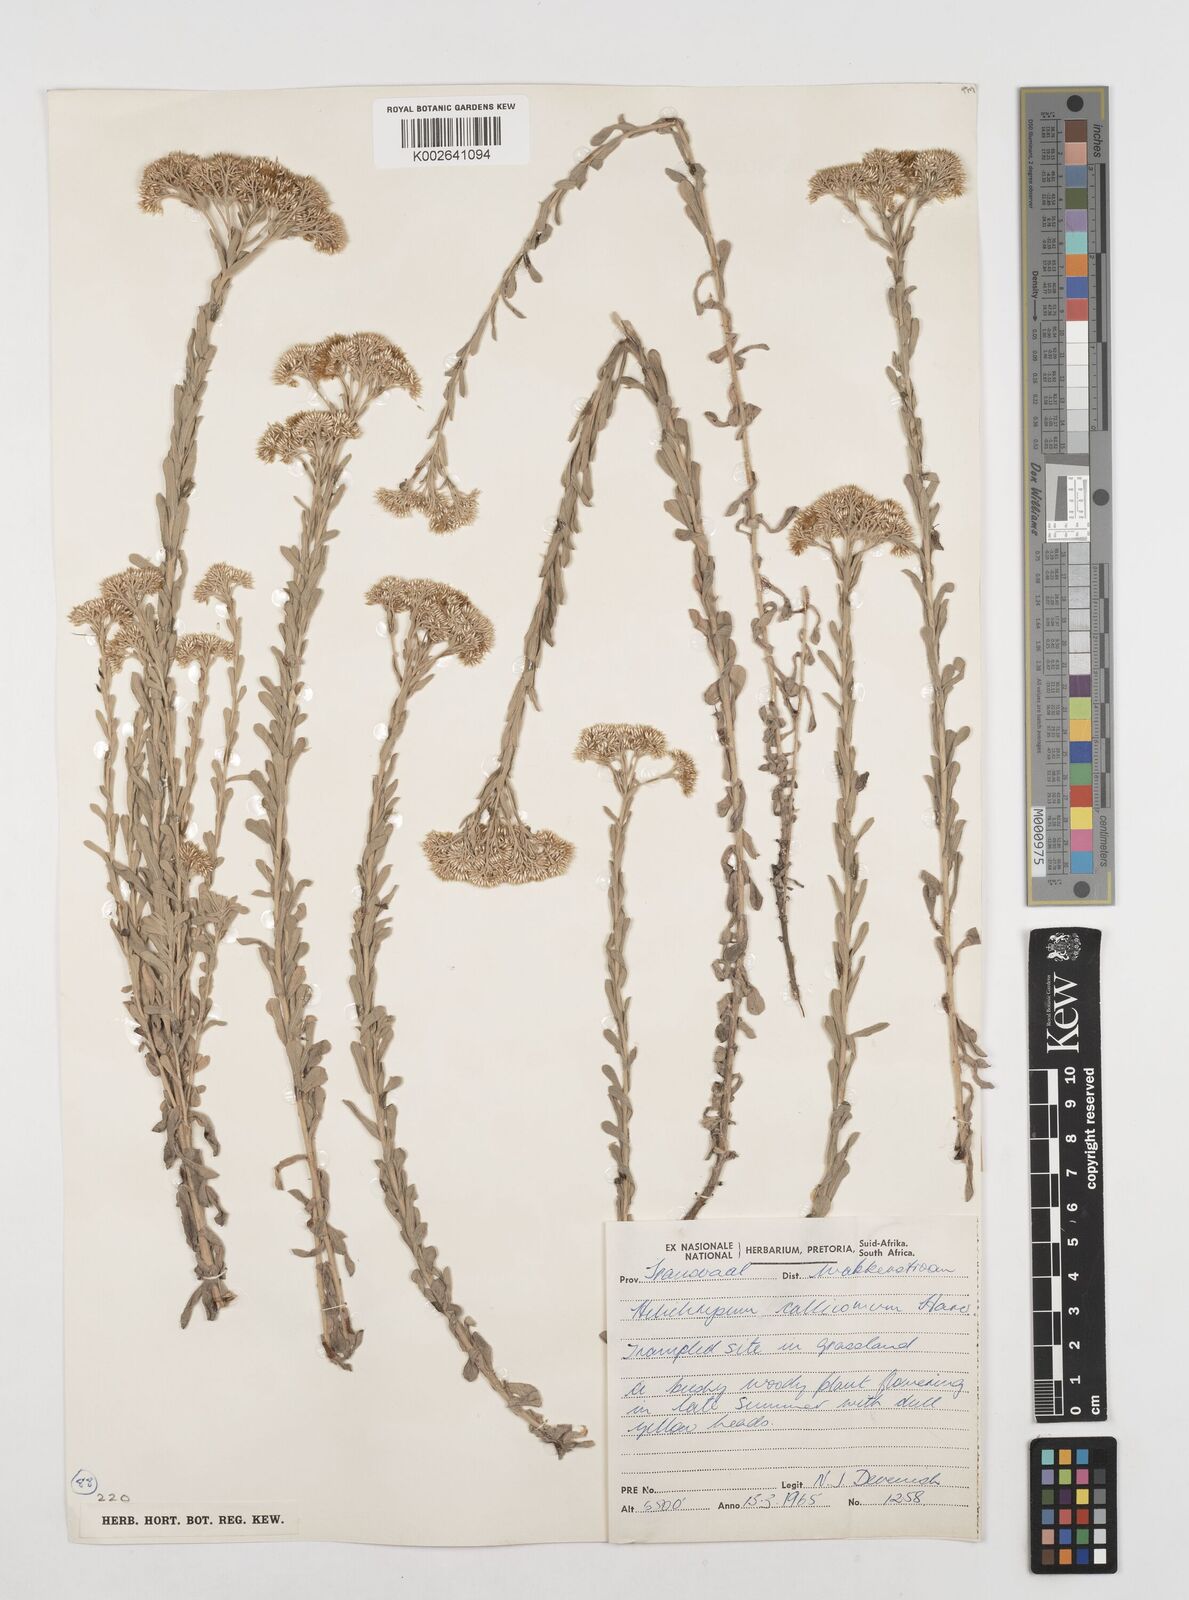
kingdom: Plantae
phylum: Tracheophyta
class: Magnoliopsida
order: Asterales
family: Asteraceae
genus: Helichrysum
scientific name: Helichrysum callicomum
